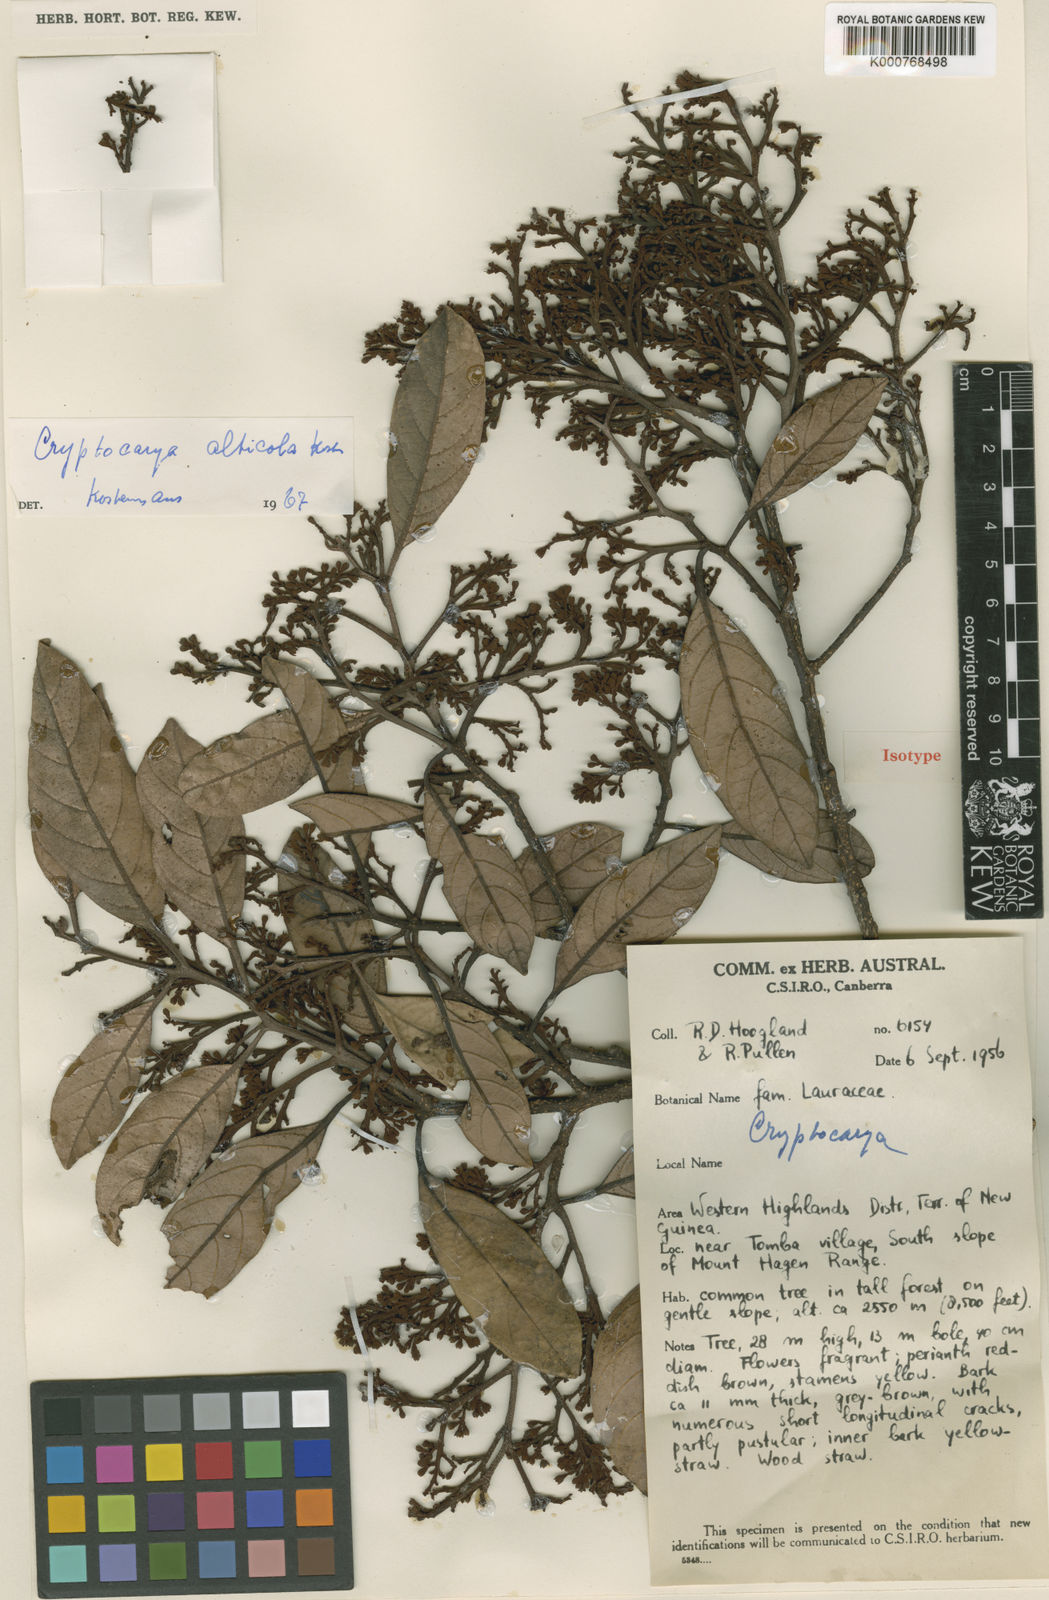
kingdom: Plantae
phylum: Tracheophyta
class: Magnoliopsida
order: Laurales
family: Lauraceae
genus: Cryptocarya
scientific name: Cryptocarya alticola
